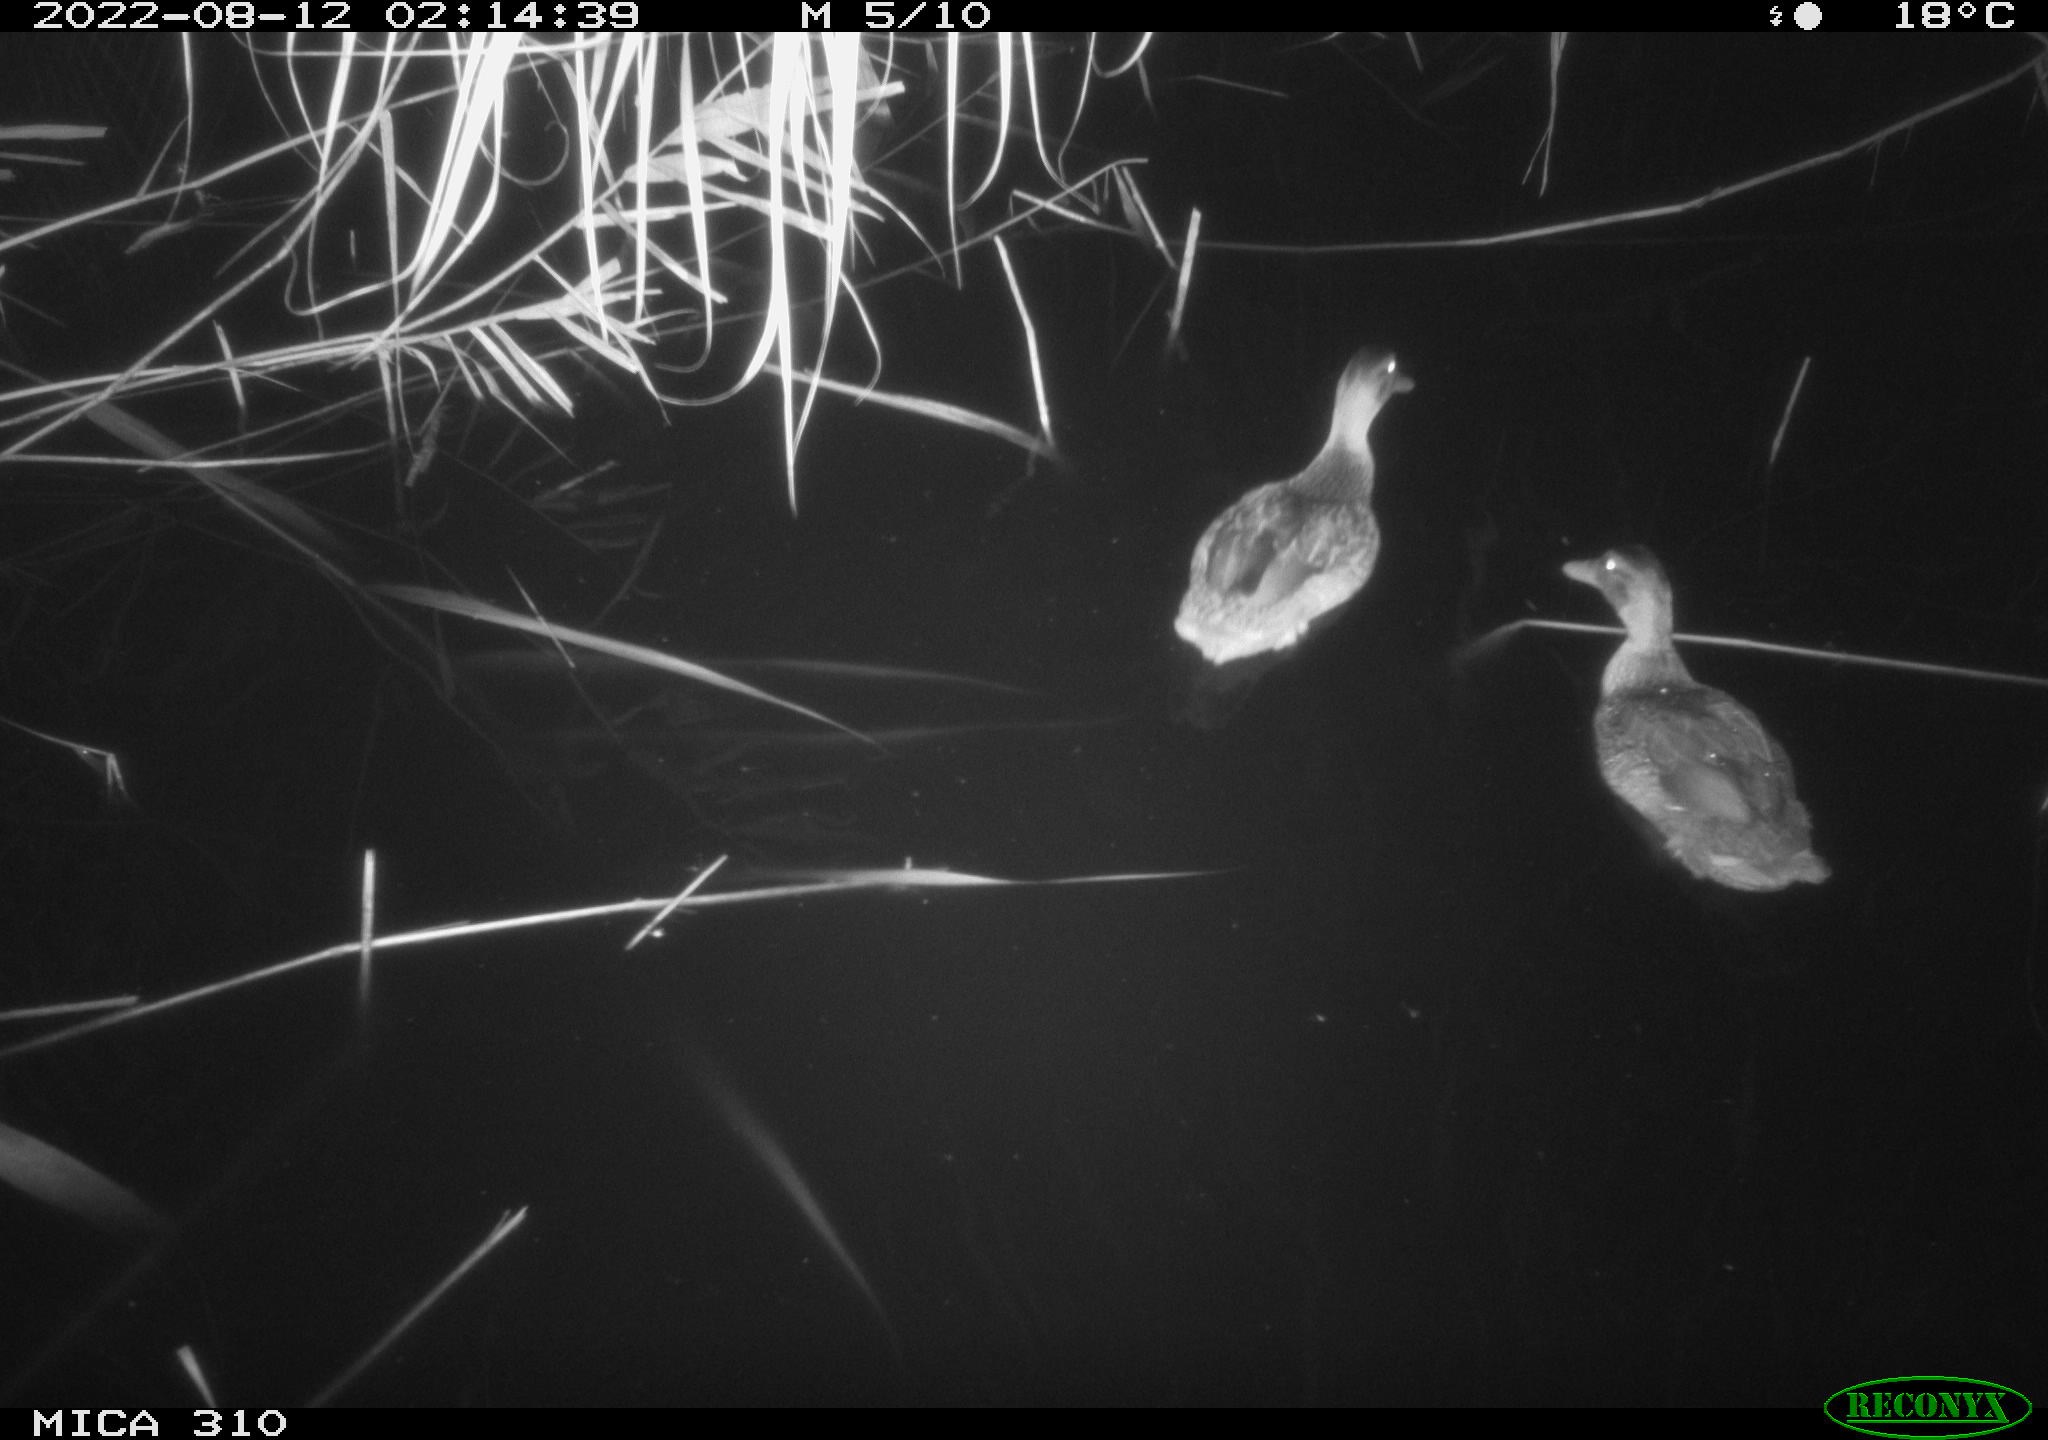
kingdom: Animalia
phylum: Chordata
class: Aves
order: Anseriformes
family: Anatidae
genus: Anas
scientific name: Anas platyrhynchos
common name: Mallard
